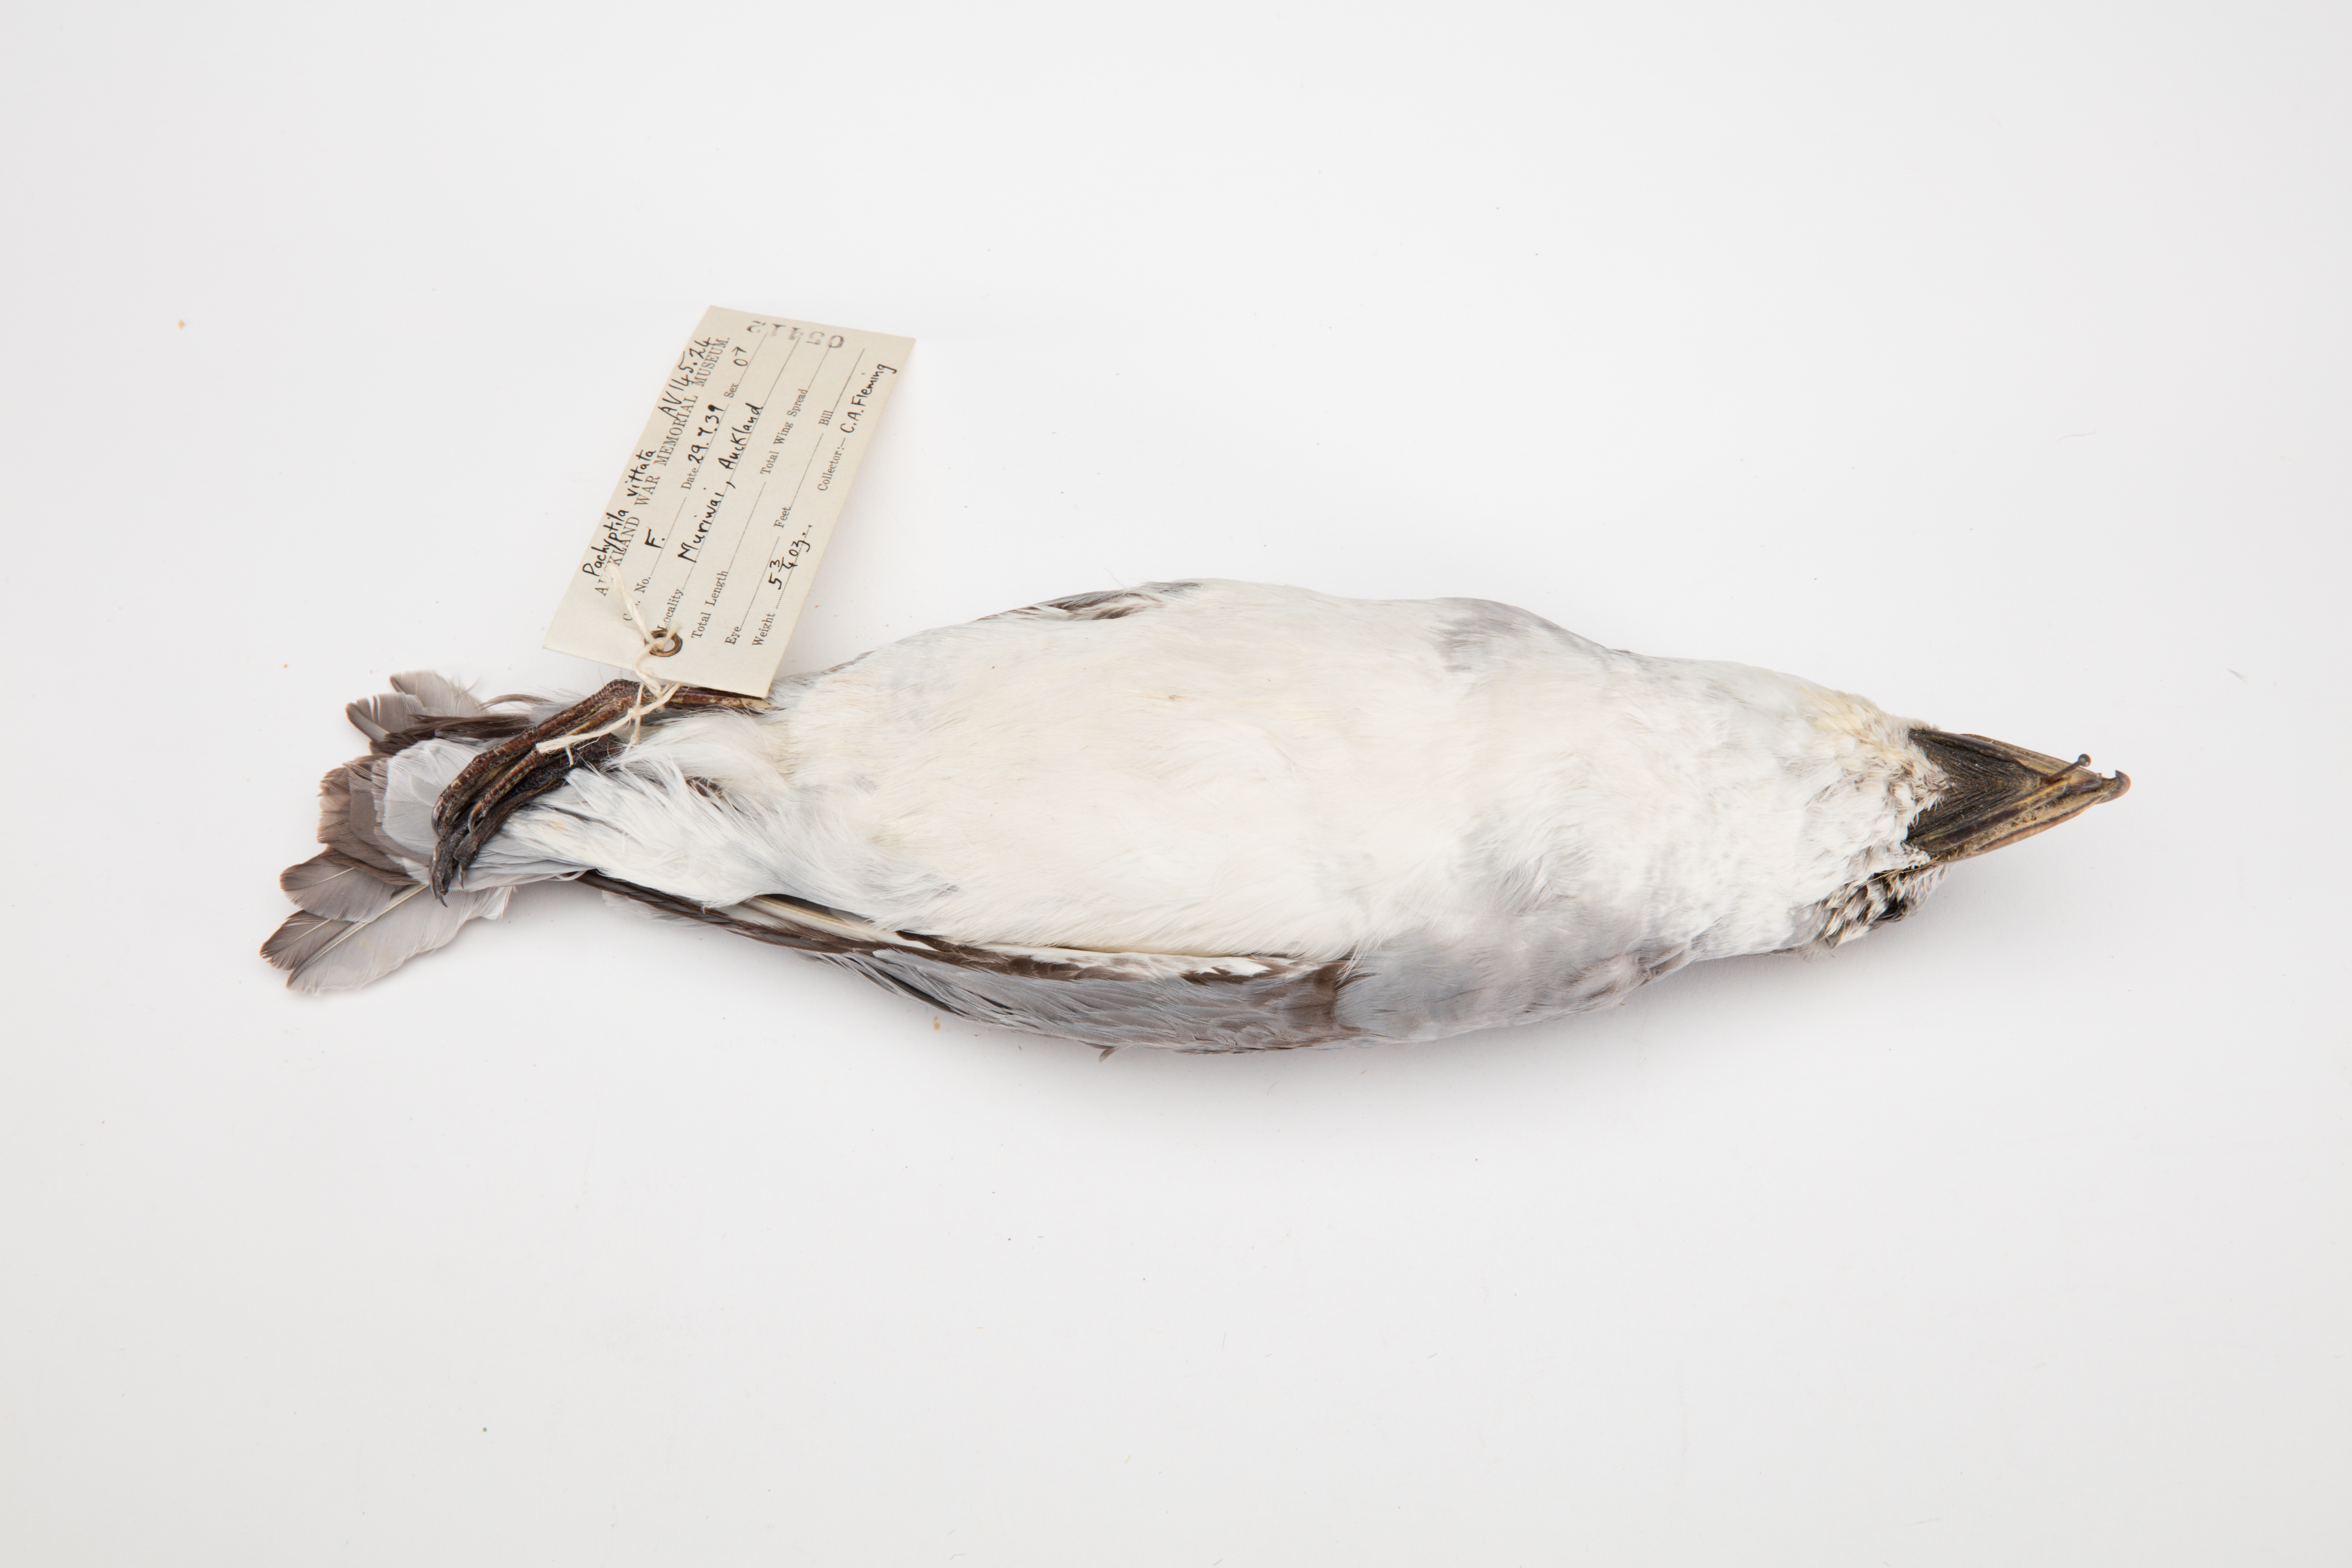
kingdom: Animalia
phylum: Chordata
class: Aves
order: Procellariiformes
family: Procellariidae
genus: Pachyptila
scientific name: Pachyptila vittata
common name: Broad-billed prion
